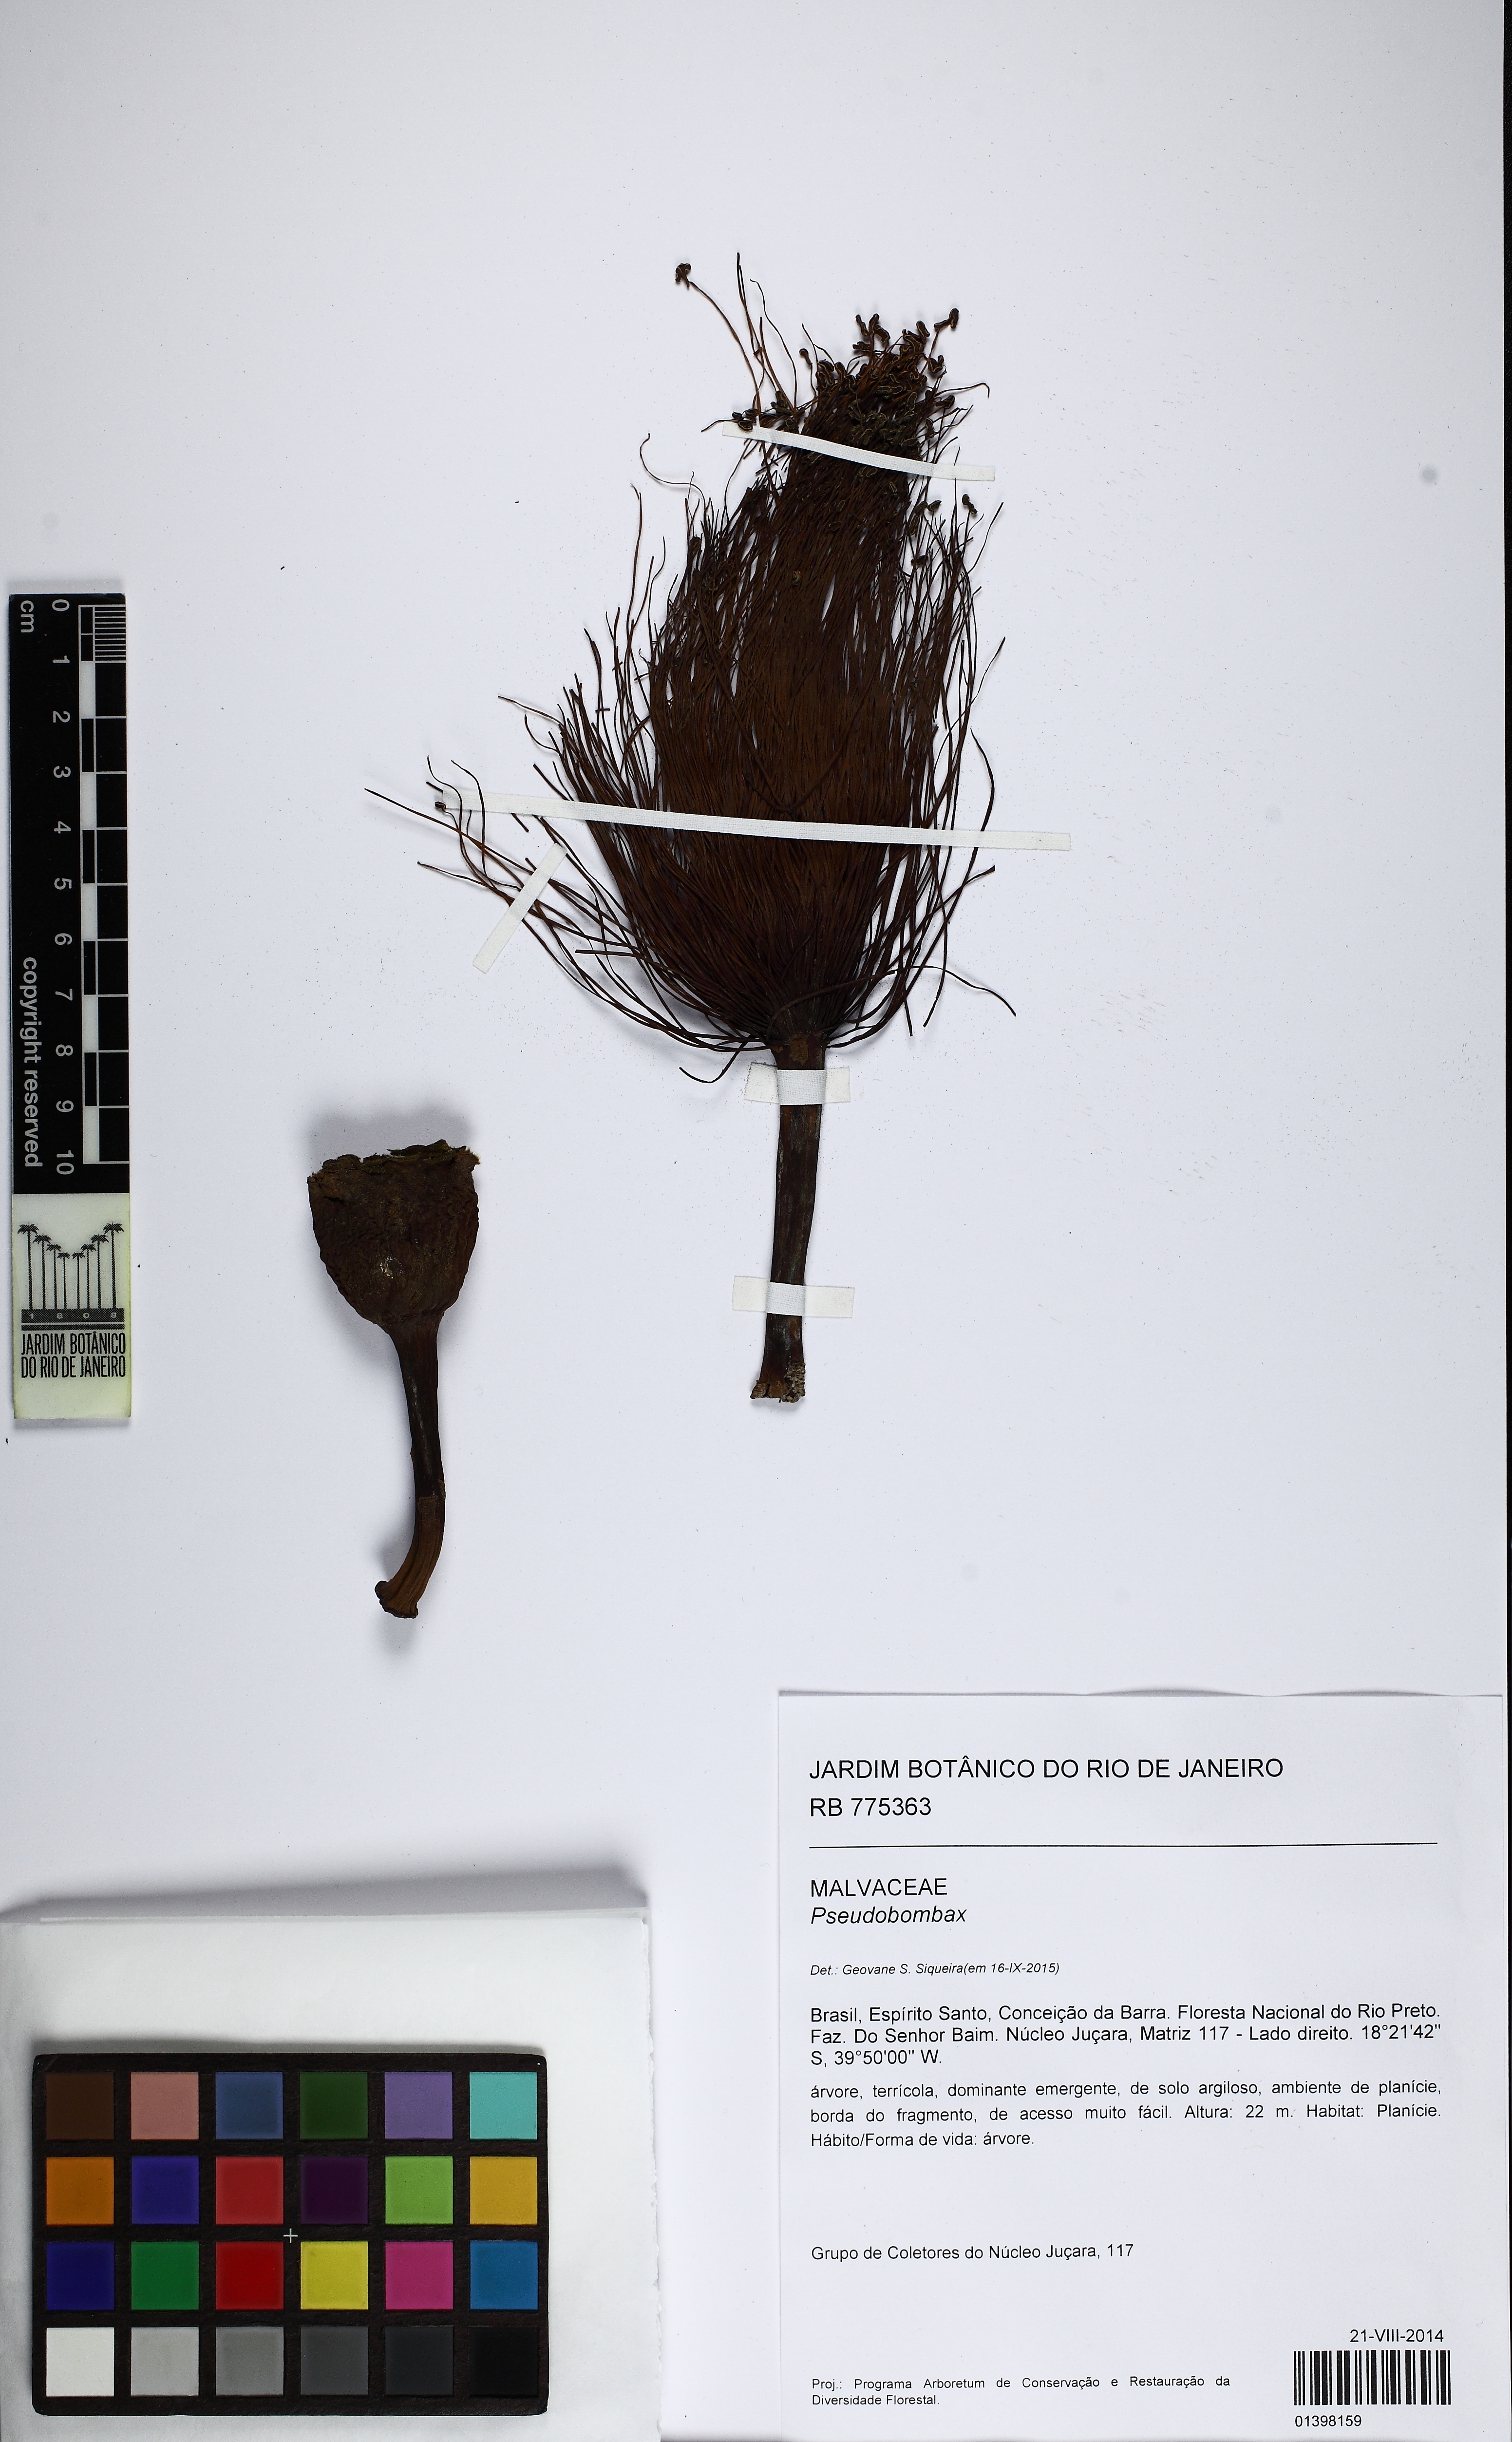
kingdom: Plantae
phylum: Tracheophyta
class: Magnoliopsida
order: Malvales
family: Malvaceae
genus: Pseudobombax
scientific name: Pseudobombax majus
